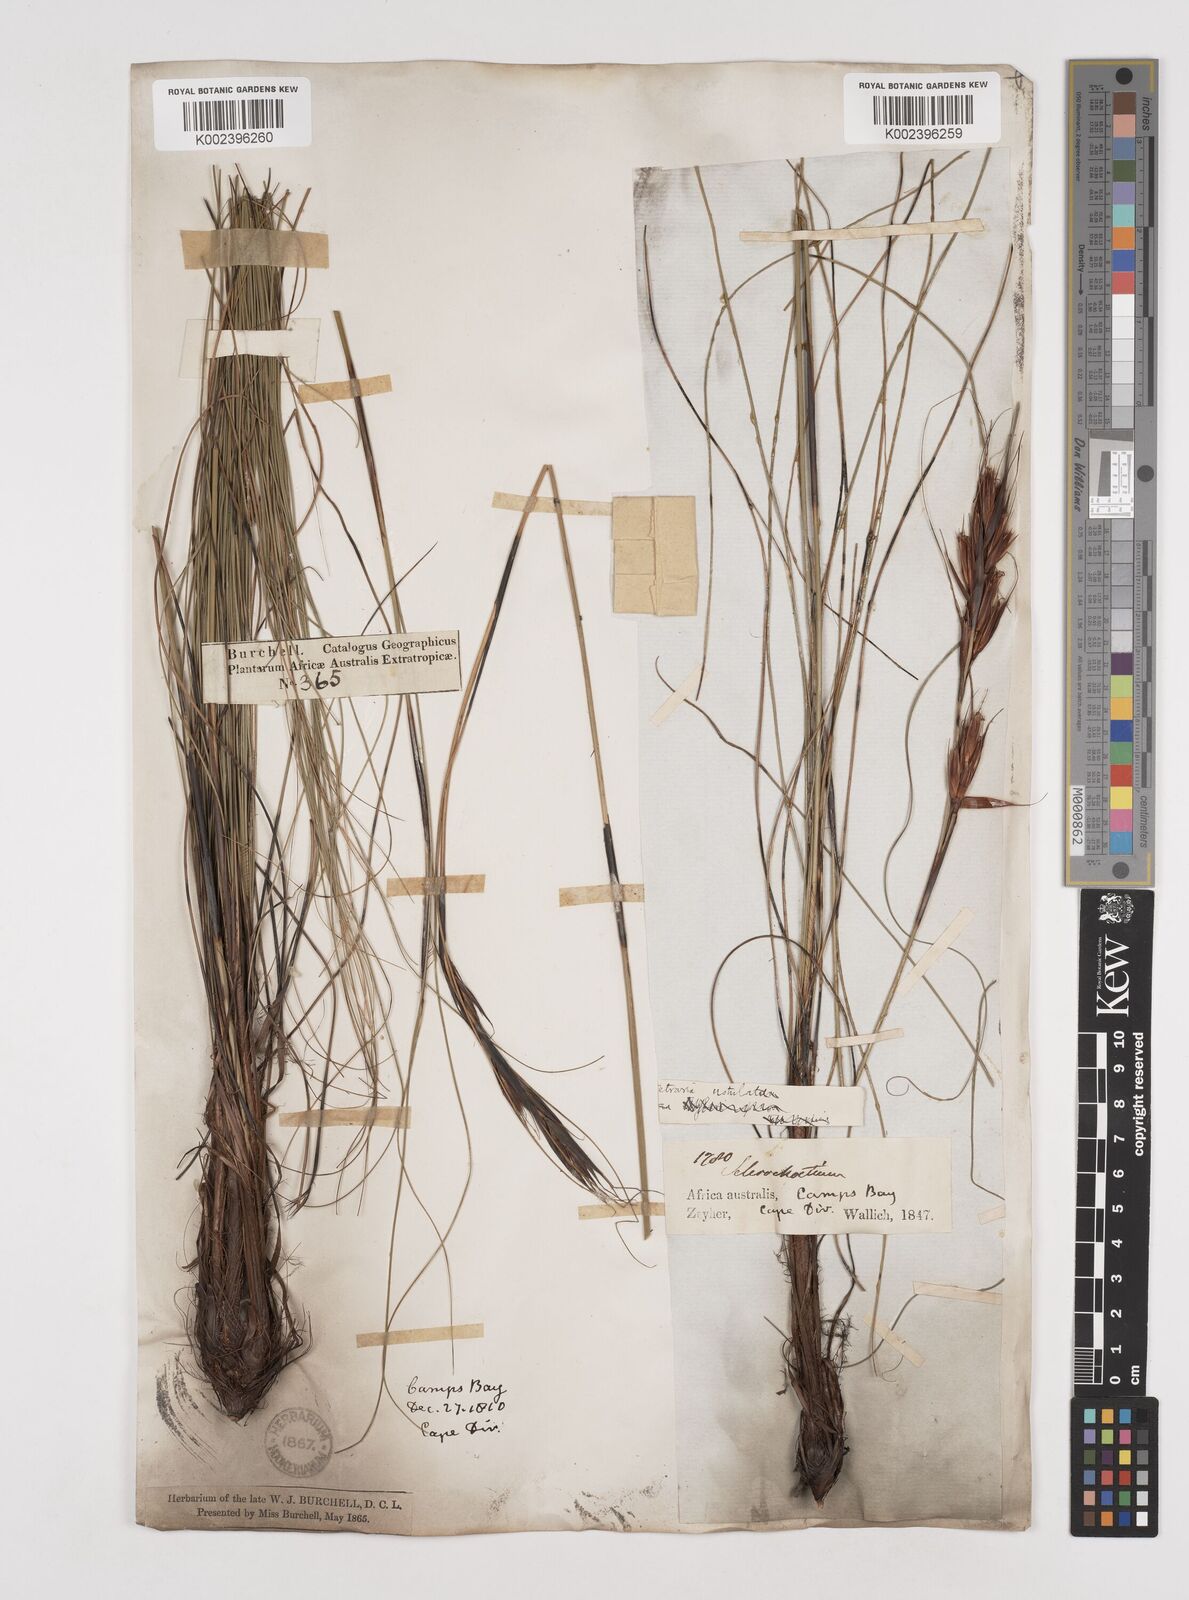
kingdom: Plantae
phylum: Tracheophyta
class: Liliopsida
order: Poales
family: Cyperaceae
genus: Tetraria
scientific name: Tetraria ustulata
